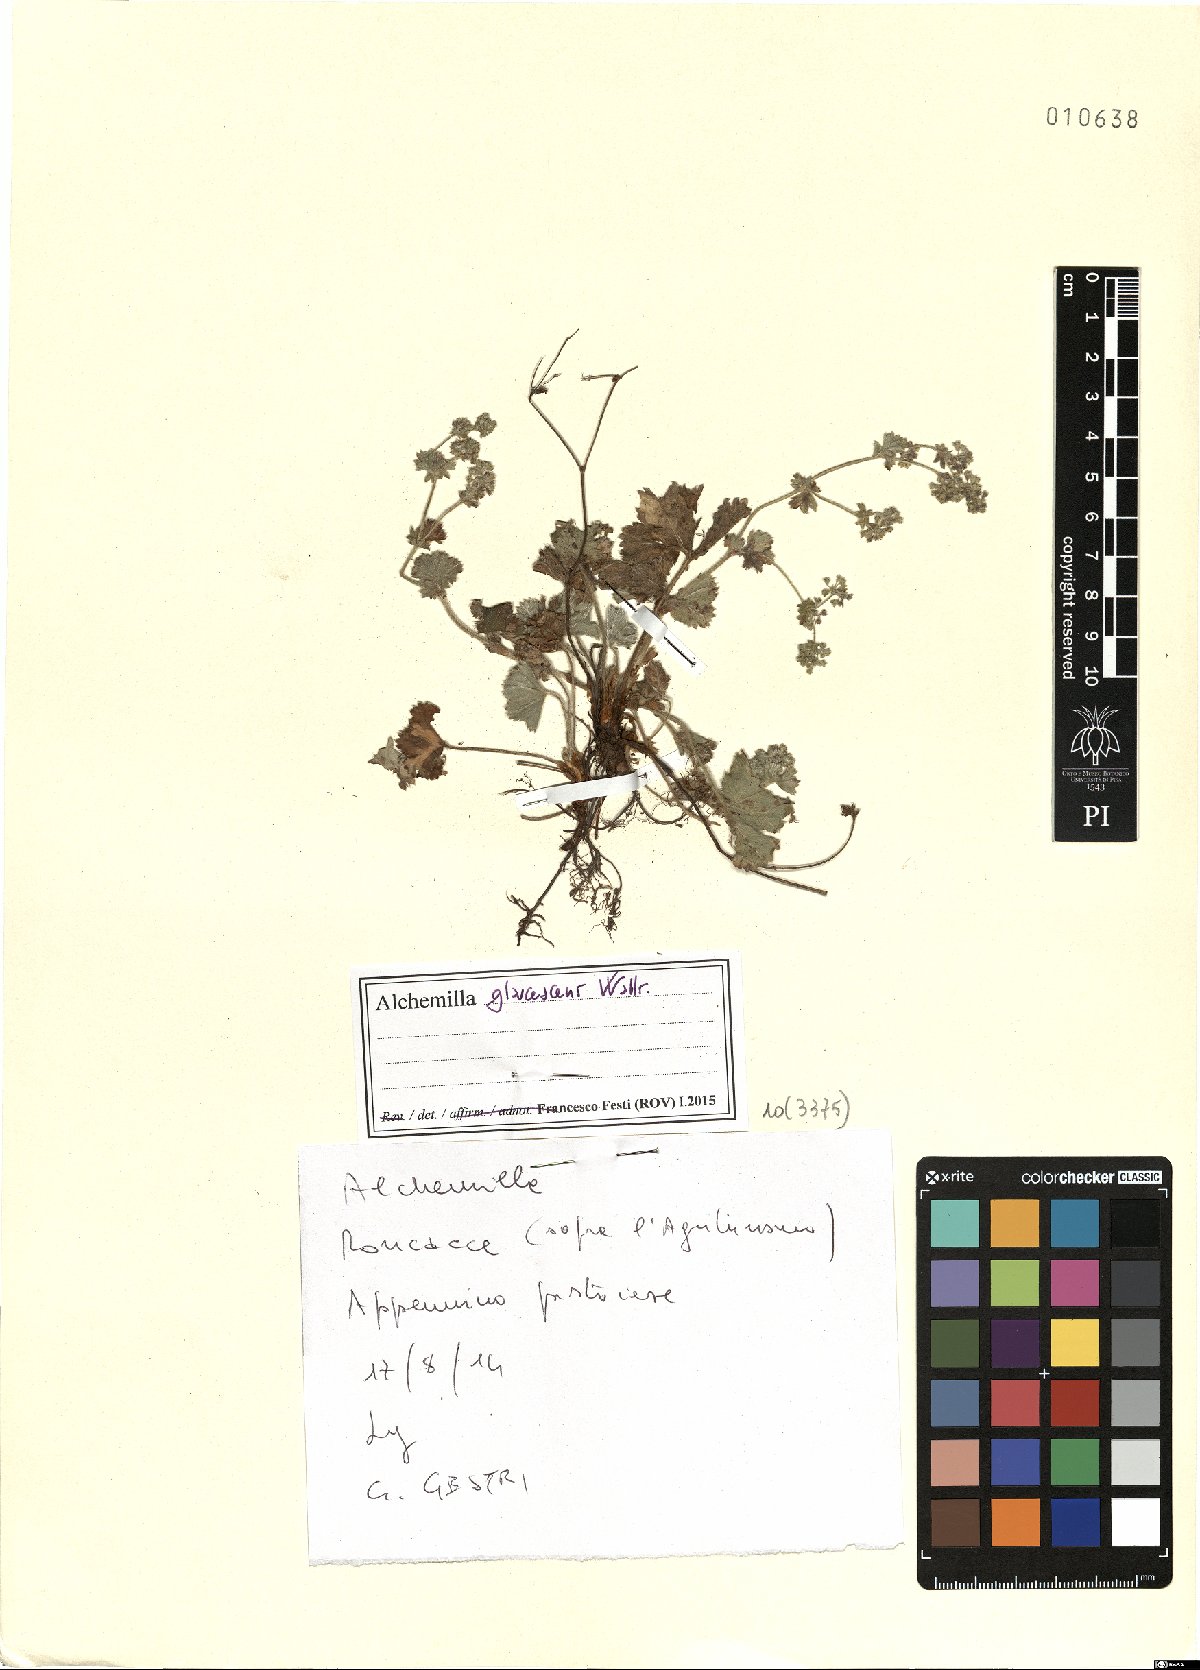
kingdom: Plantae
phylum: Tracheophyta
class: Magnoliopsida
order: Rosales
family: Rosaceae
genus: Alchemilla
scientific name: Alchemilla glaucescens
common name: Silky lady's mantle
